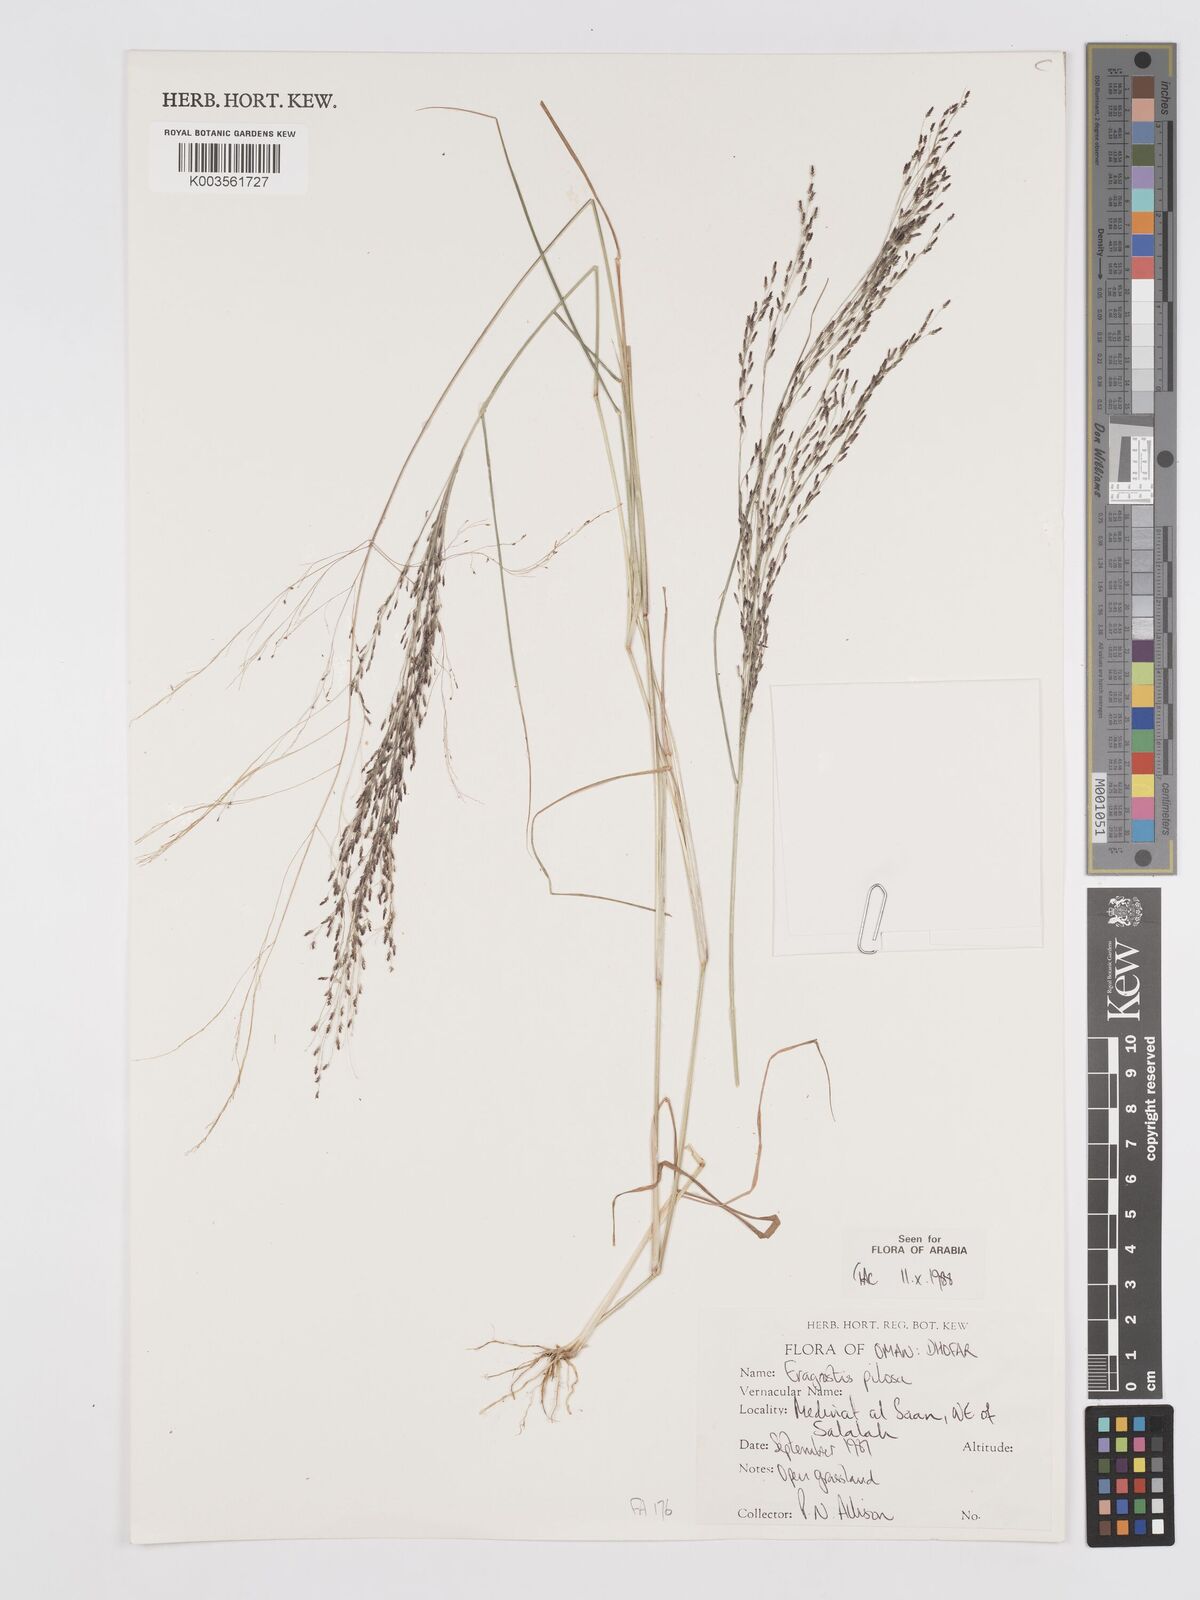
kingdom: Plantae
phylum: Tracheophyta
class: Liliopsida
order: Poales
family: Poaceae
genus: Eragrostis
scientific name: Eragrostis pilosa
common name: Indian lovegrass
